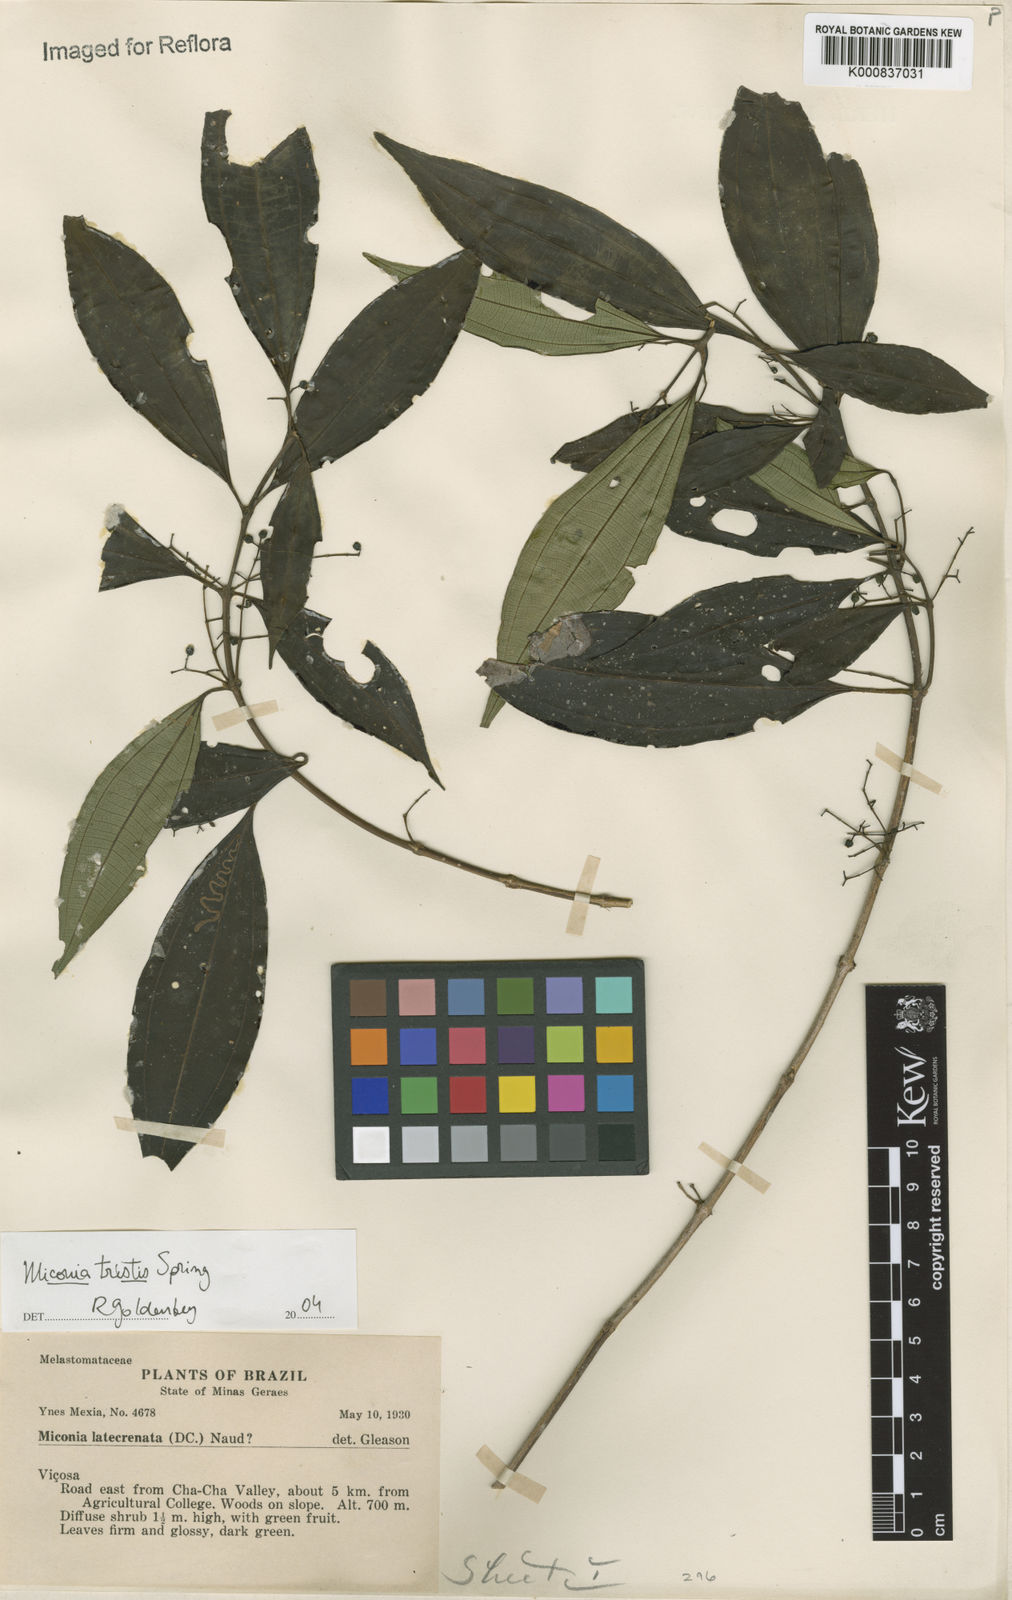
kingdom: Plantae
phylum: Tracheophyta
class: Magnoliopsida
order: Myrtales
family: Melastomataceae
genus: Miconia
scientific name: Miconia
